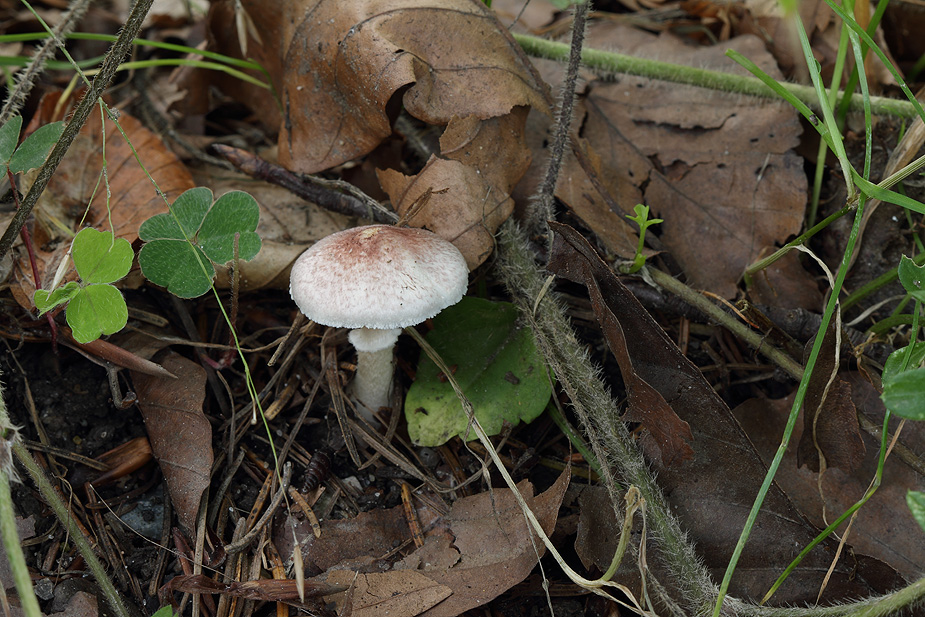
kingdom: Fungi
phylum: Basidiomycota
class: Agaricomycetes
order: Agaricales
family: Agaricaceae
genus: Agaricus
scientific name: Agaricus dulcidulus
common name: blegrød champignon
